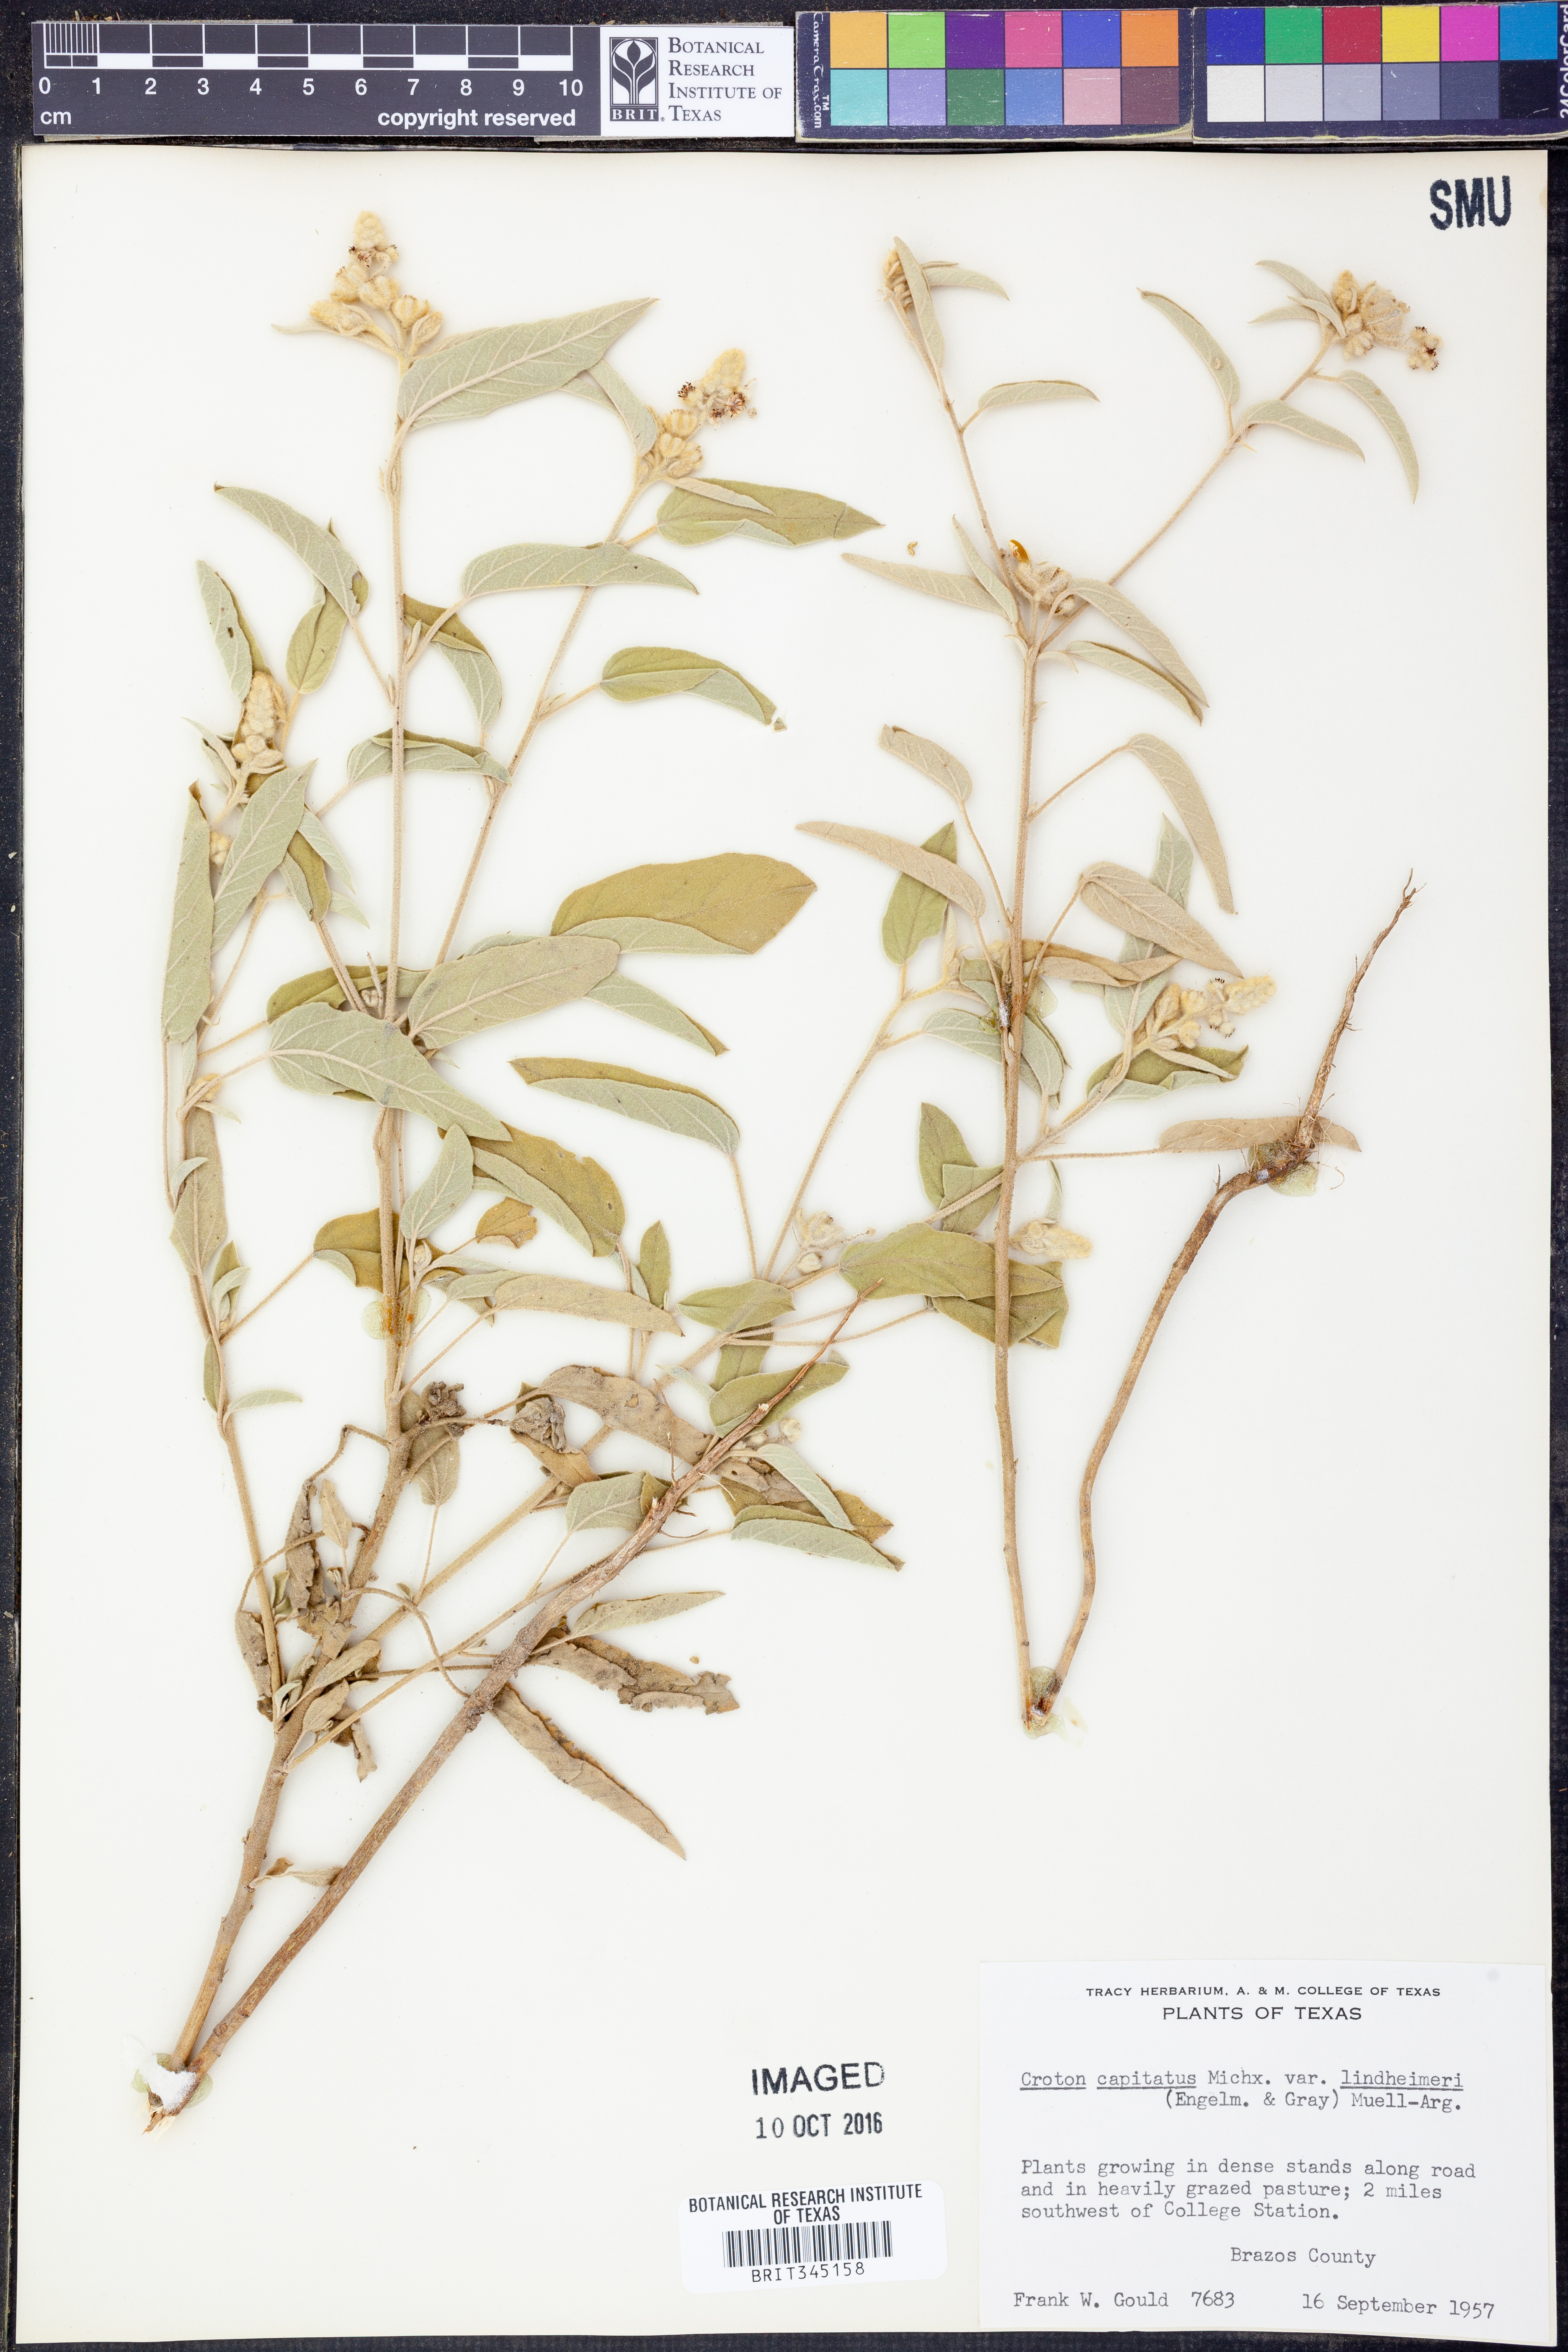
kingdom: Plantae
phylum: Tracheophyta
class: Magnoliopsida
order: Malpighiales
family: Euphorbiaceae
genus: Croton
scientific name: Croton lindheimeri
